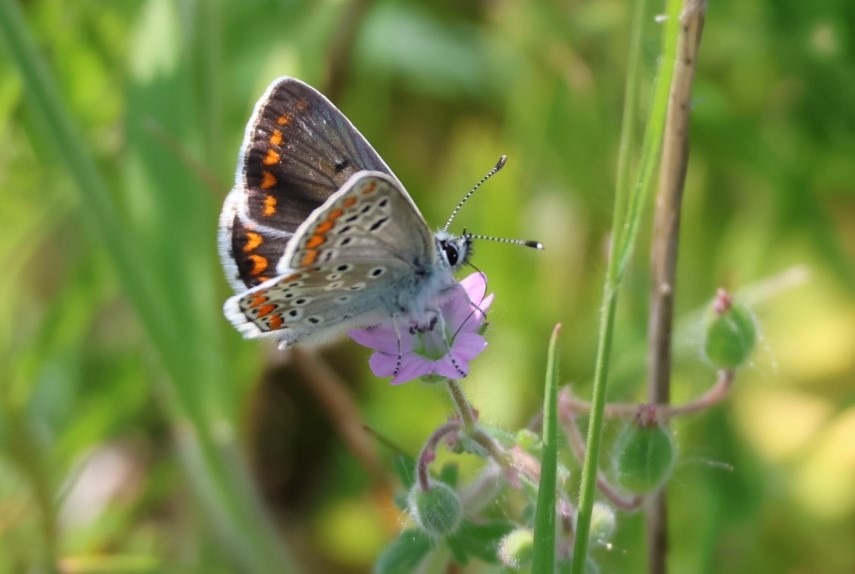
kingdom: Animalia
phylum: Arthropoda
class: Insecta
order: Lepidoptera
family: Lycaenidae
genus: Aricia
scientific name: Aricia agestis
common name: Rødplettet blåfugl
